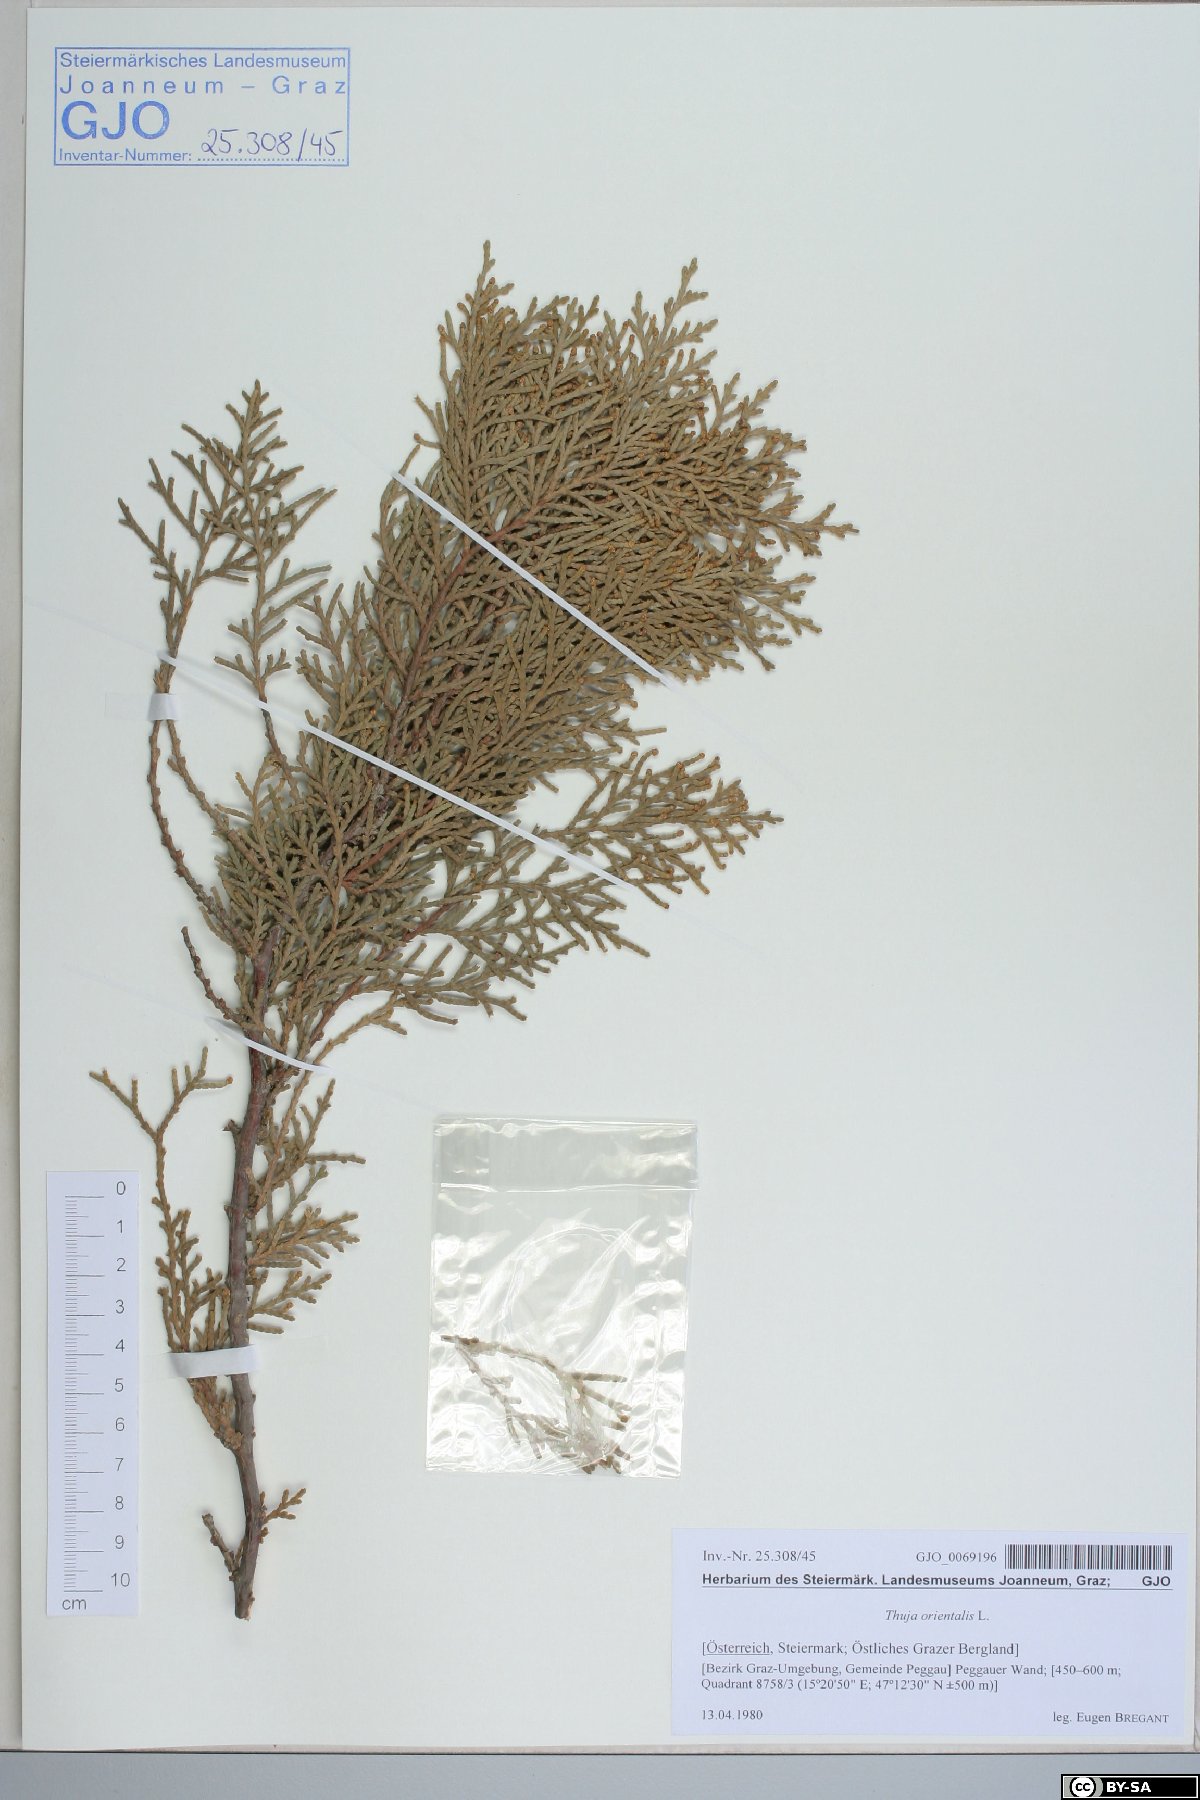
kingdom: Plantae
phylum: Tracheophyta
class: Pinopsida
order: Pinales
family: Cupressaceae
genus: Platycladus
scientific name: Platycladus orientalis
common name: Chinese thuja
